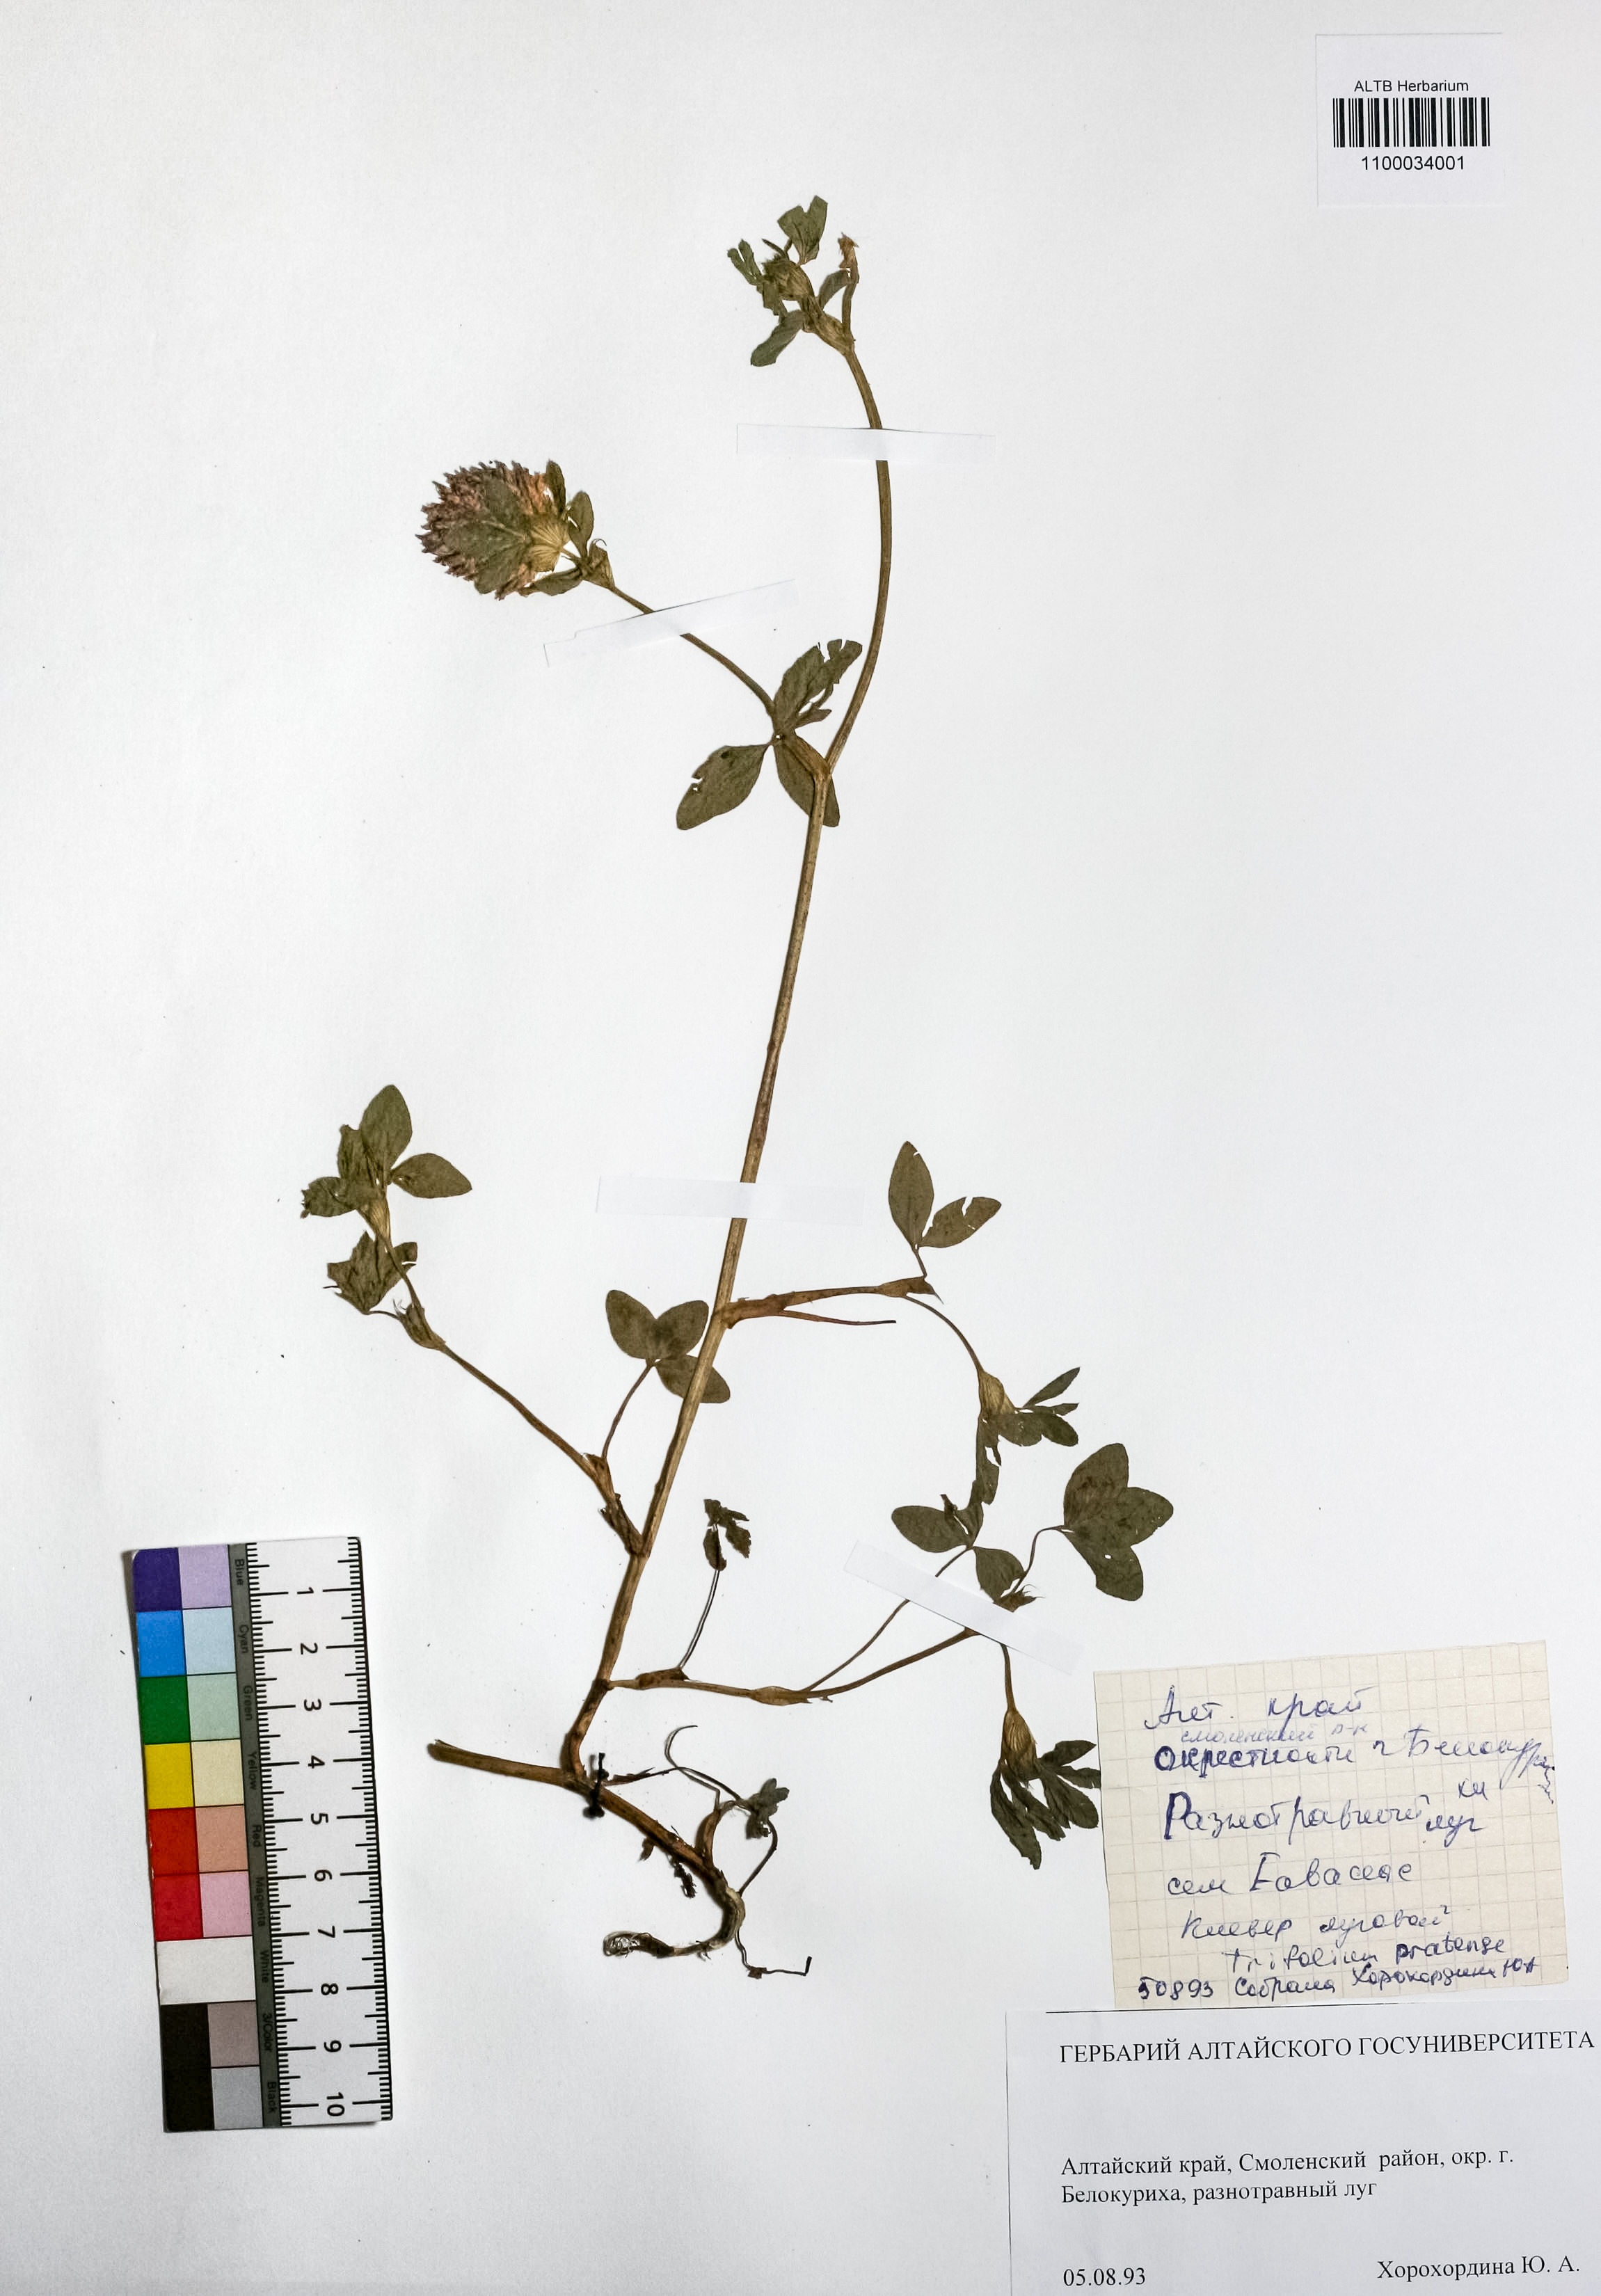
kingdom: Plantae
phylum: Tracheophyta
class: Magnoliopsida
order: Fabales
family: Fabaceae
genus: Trifolium
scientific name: Trifolium pratense
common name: Red clover
